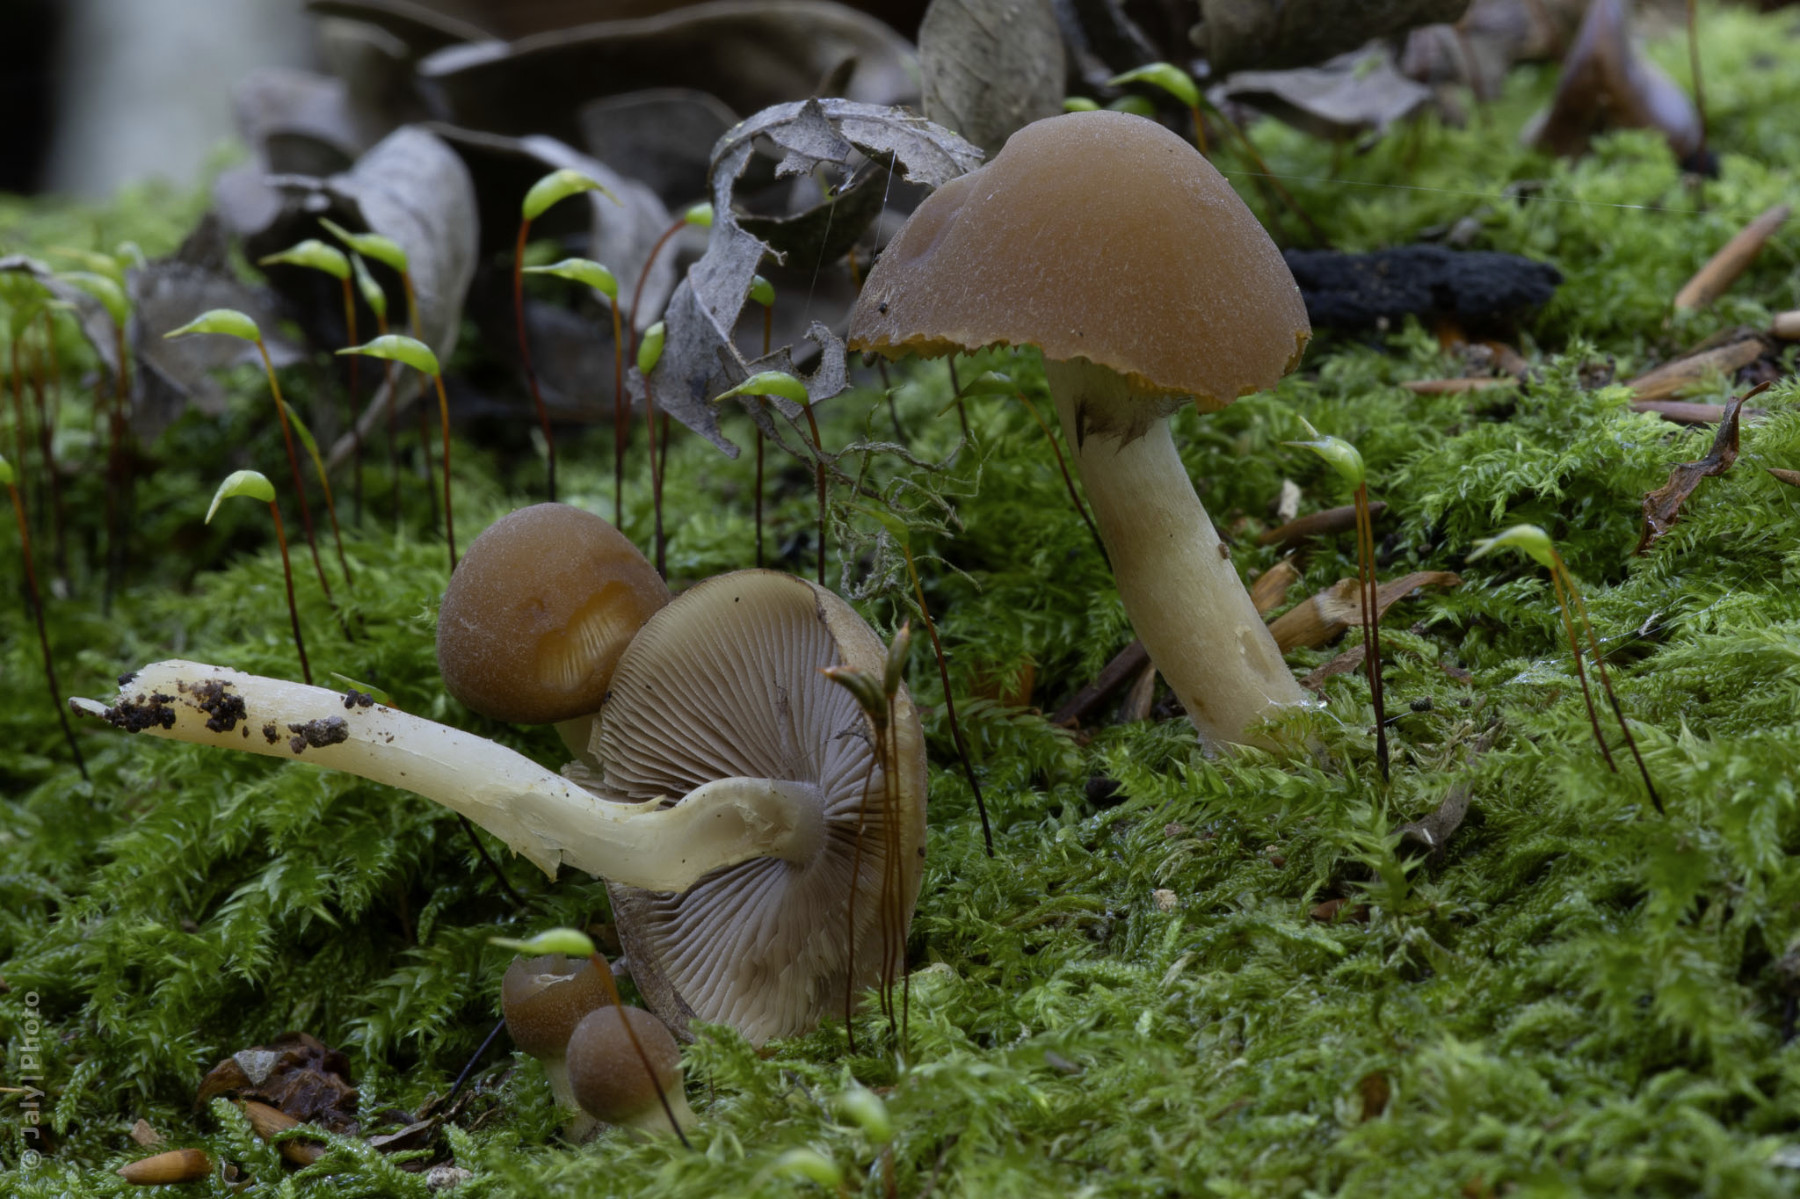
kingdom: Fungi
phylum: Basidiomycota
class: Agaricomycetes
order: Agaricales
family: Psathyrellaceae
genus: Psathyrella
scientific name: Psathyrella piluliformis
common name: lysstokket mørkhat
